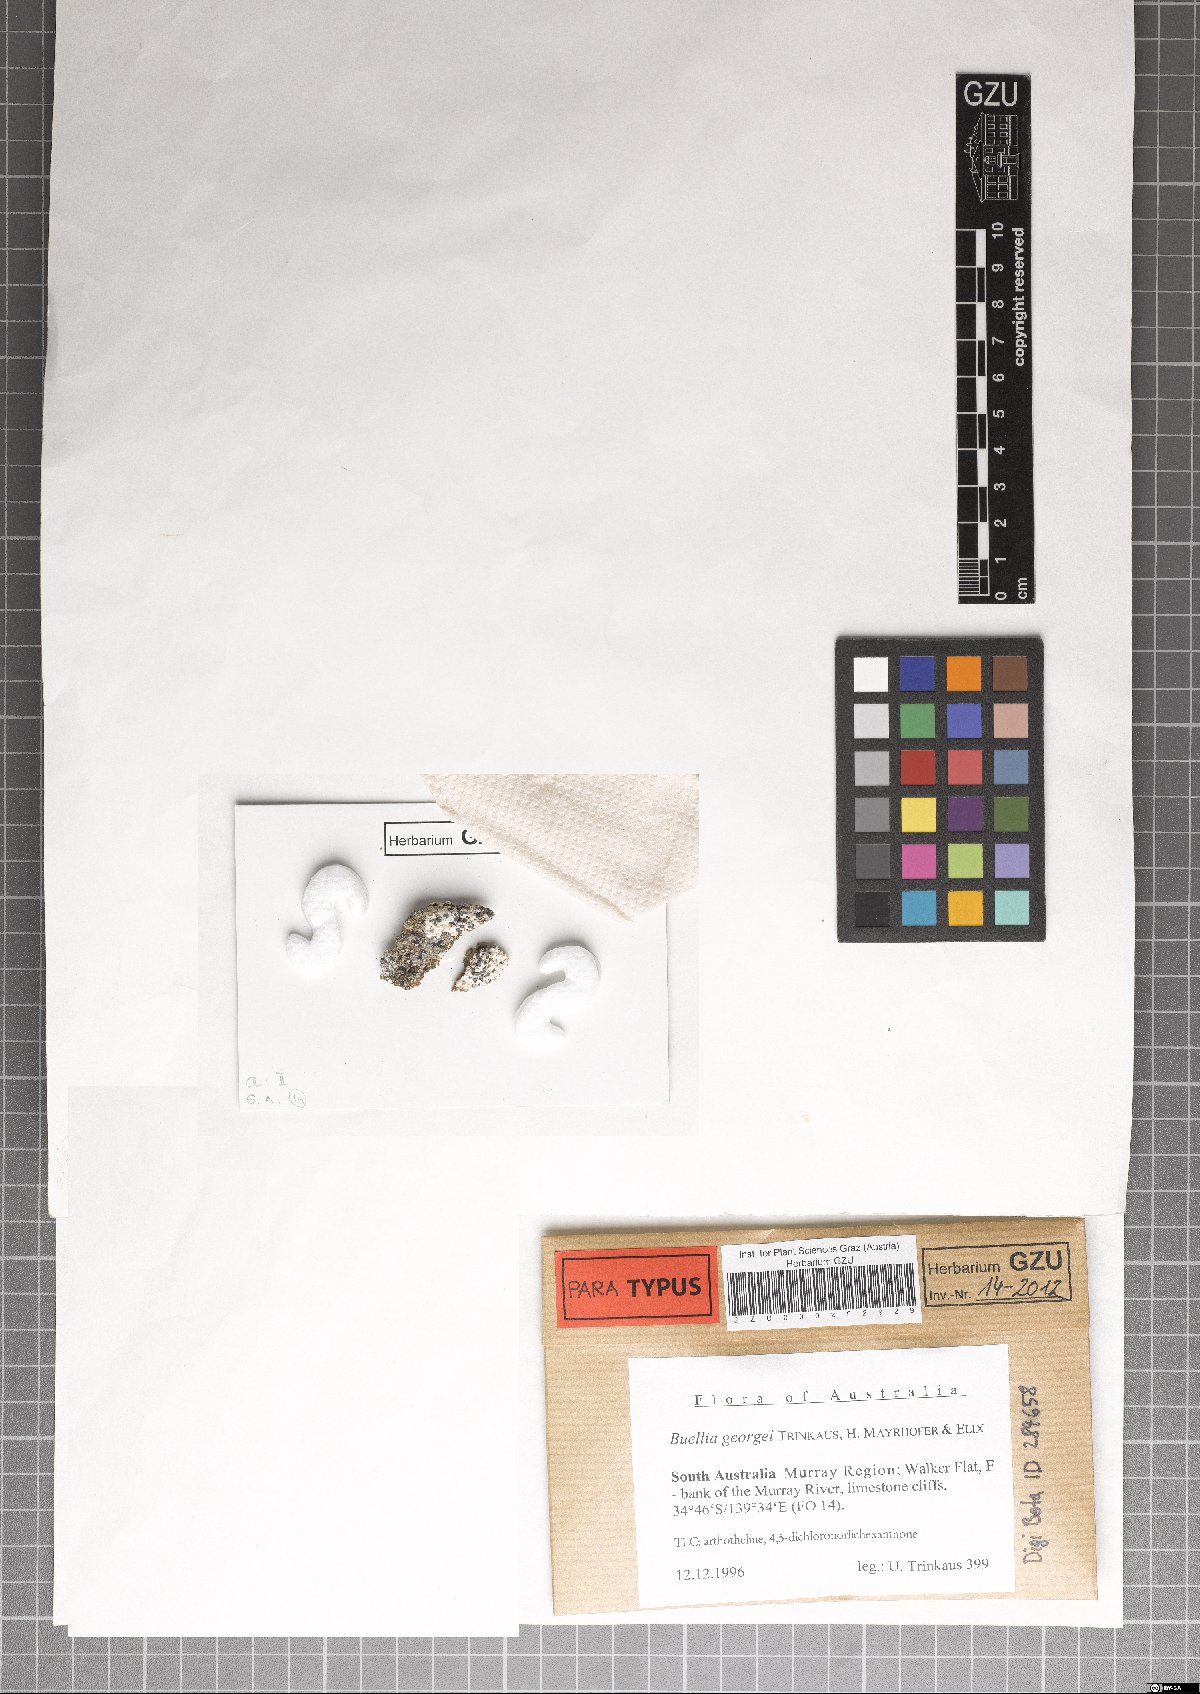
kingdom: Fungi
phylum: Ascomycota
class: Lecanoromycetes
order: Caliciales
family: Caliciaceae
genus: Buellia
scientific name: Buellia georgei
